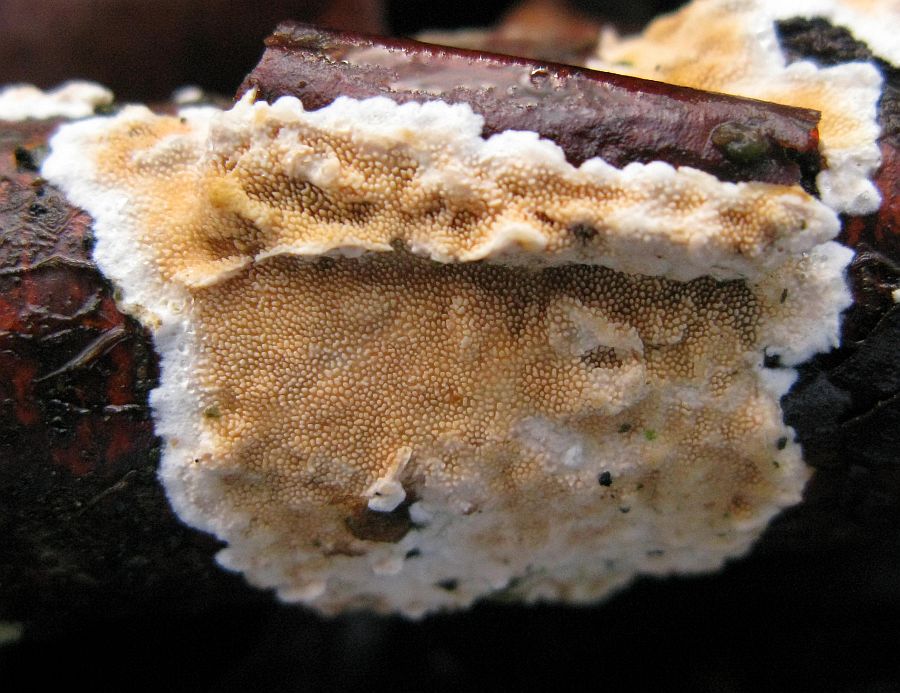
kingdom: Fungi
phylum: Basidiomycota
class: Agaricomycetes
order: Polyporales
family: Steccherinaceae
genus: Steccherinum
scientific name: Steccherinum ochraceum
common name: almindelig skønpig
